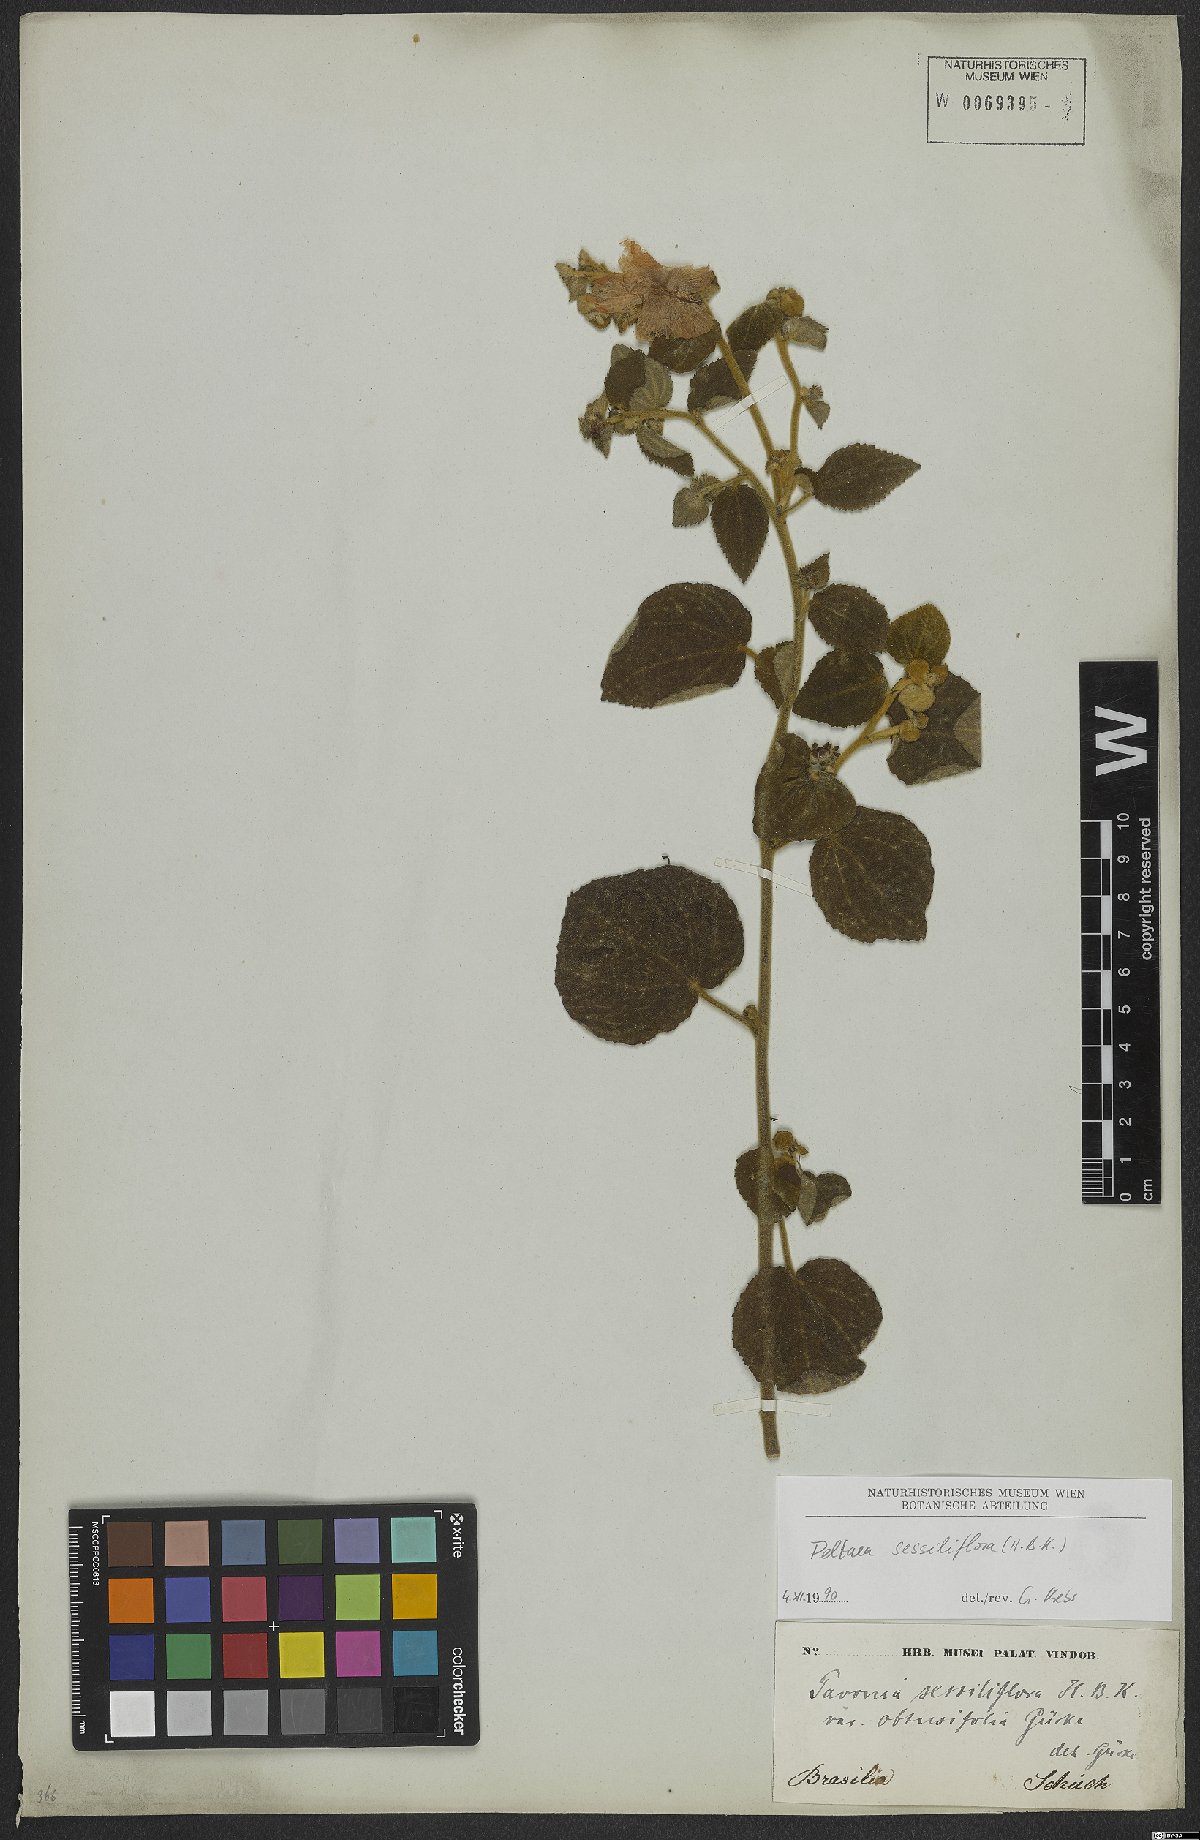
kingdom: Plantae
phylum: Tracheophyta
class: Magnoliopsida
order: Malvales
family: Malvaceae
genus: Peltaea
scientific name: Peltaea sessiliflora
